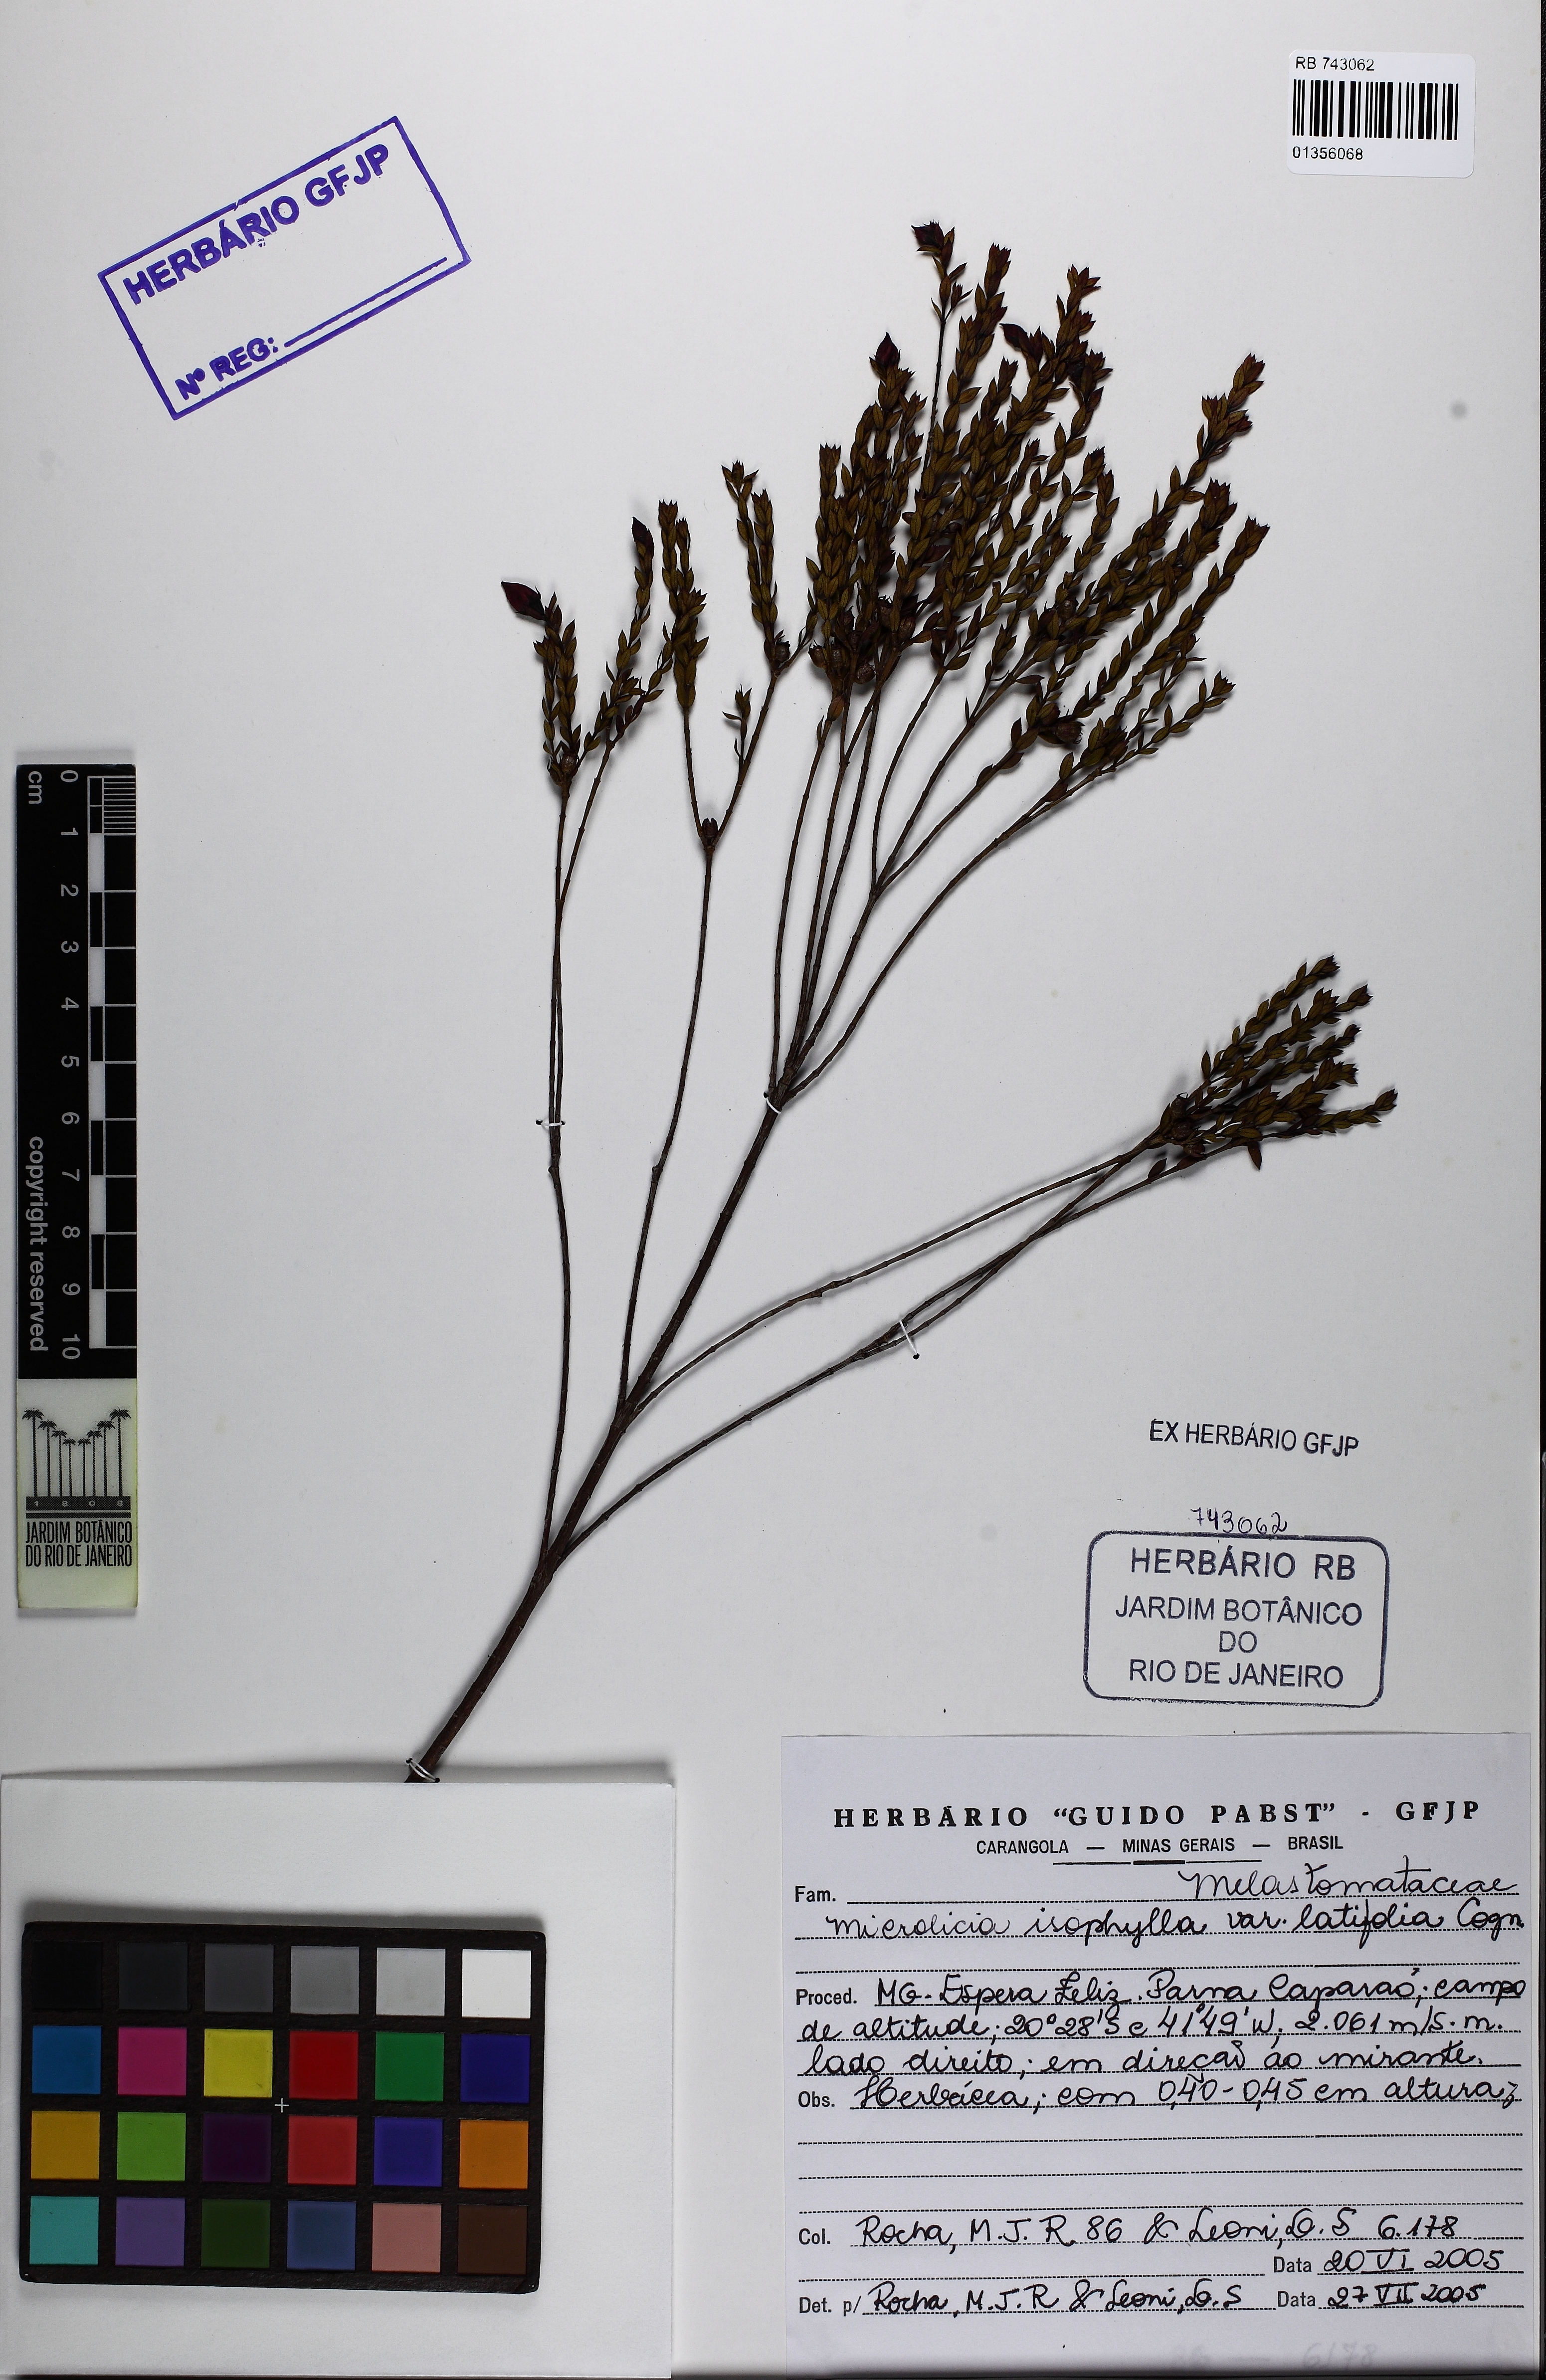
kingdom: Plantae
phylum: Tracheophyta
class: Magnoliopsida
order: Myrtales
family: Melastomataceae
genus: Microlicia
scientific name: Microlicia isophylla
